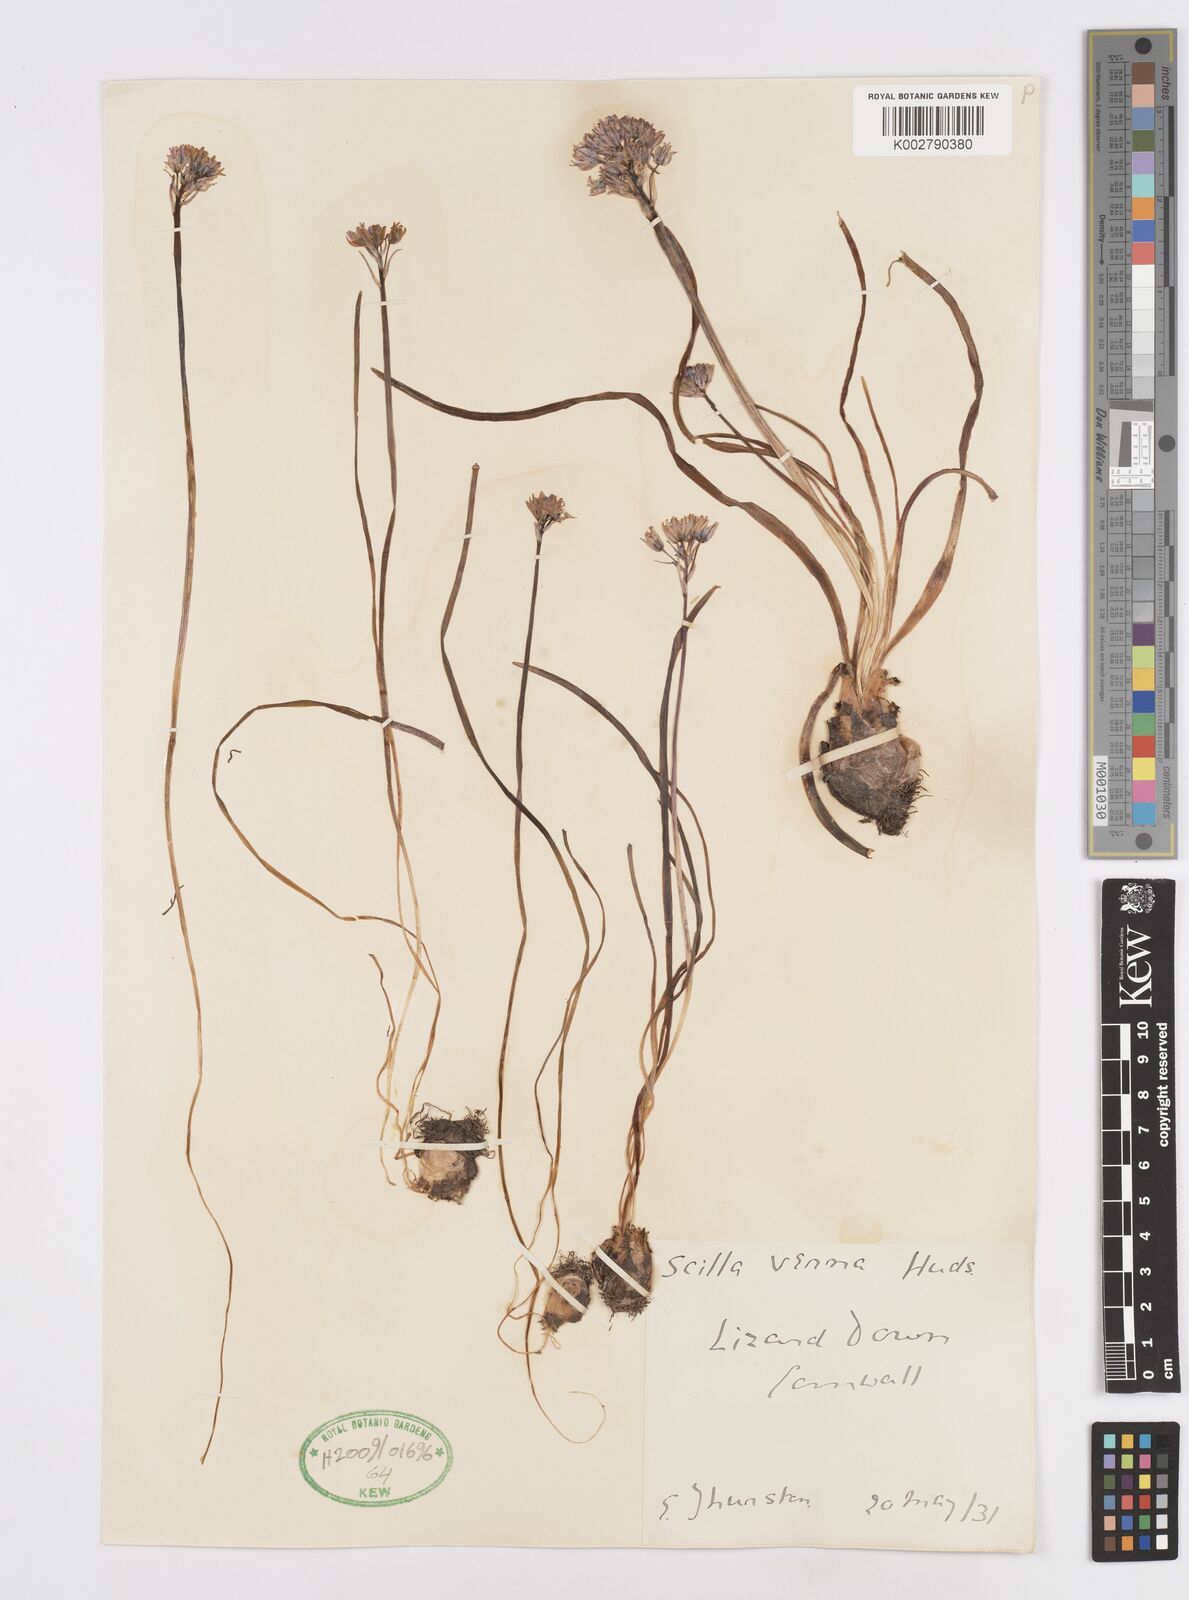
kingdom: Plantae
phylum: Tracheophyta
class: Liliopsida
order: Asparagales
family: Asparagaceae
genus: Scilla
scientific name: Scilla verna
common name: Spring squill
